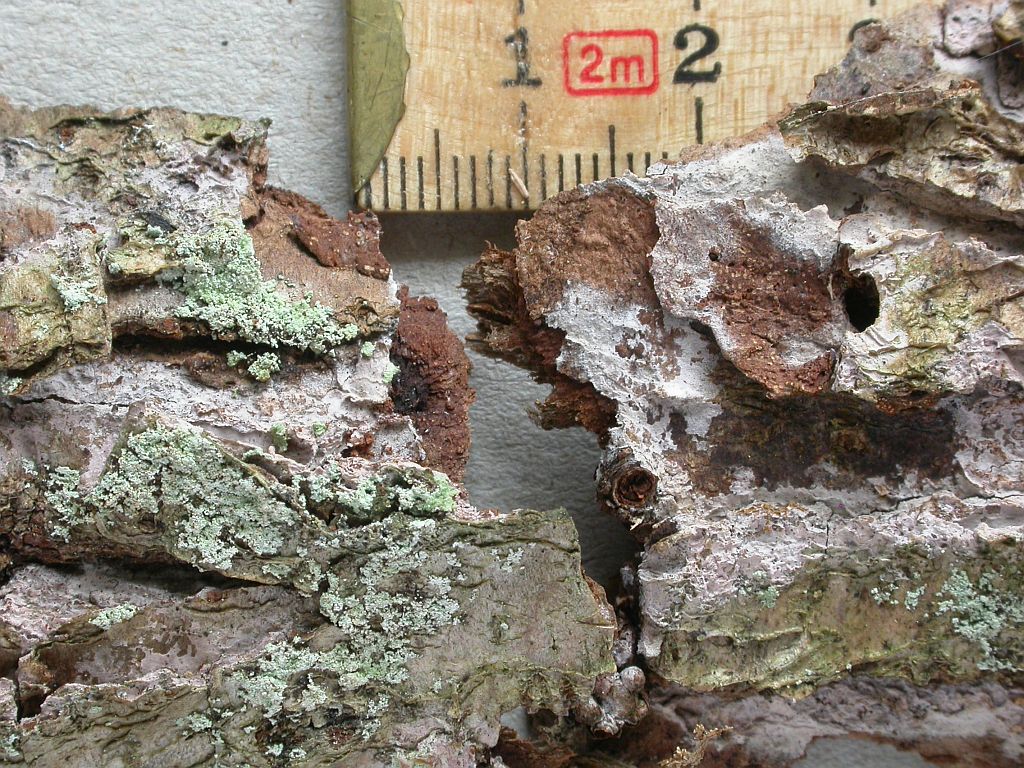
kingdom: Fungi
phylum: Basidiomycota
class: Agaricomycetes
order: Cantharellales
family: Tulasnellaceae
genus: Tulasnella
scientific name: Tulasnella eichleriana
